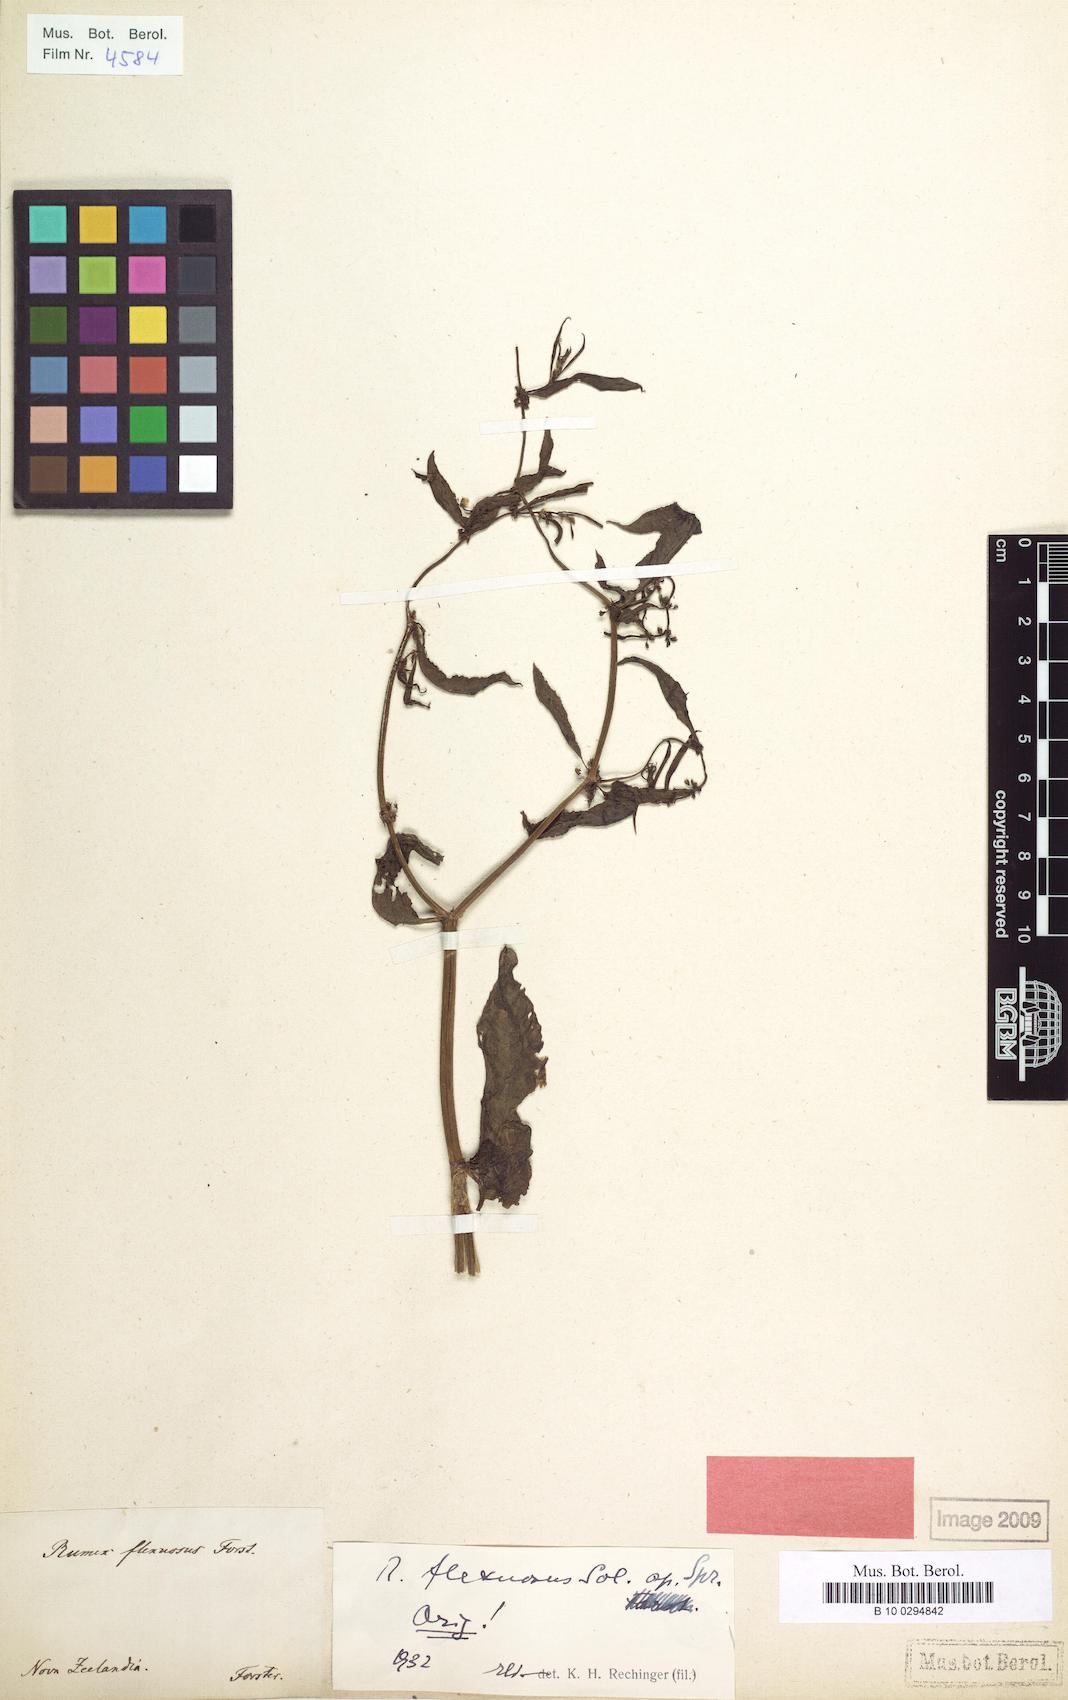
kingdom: Plantae
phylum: Tracheophyta
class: Magnoliopsida
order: Caryophyllales
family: Polygonaceae
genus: Rumex
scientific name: Rumex flexuosus
